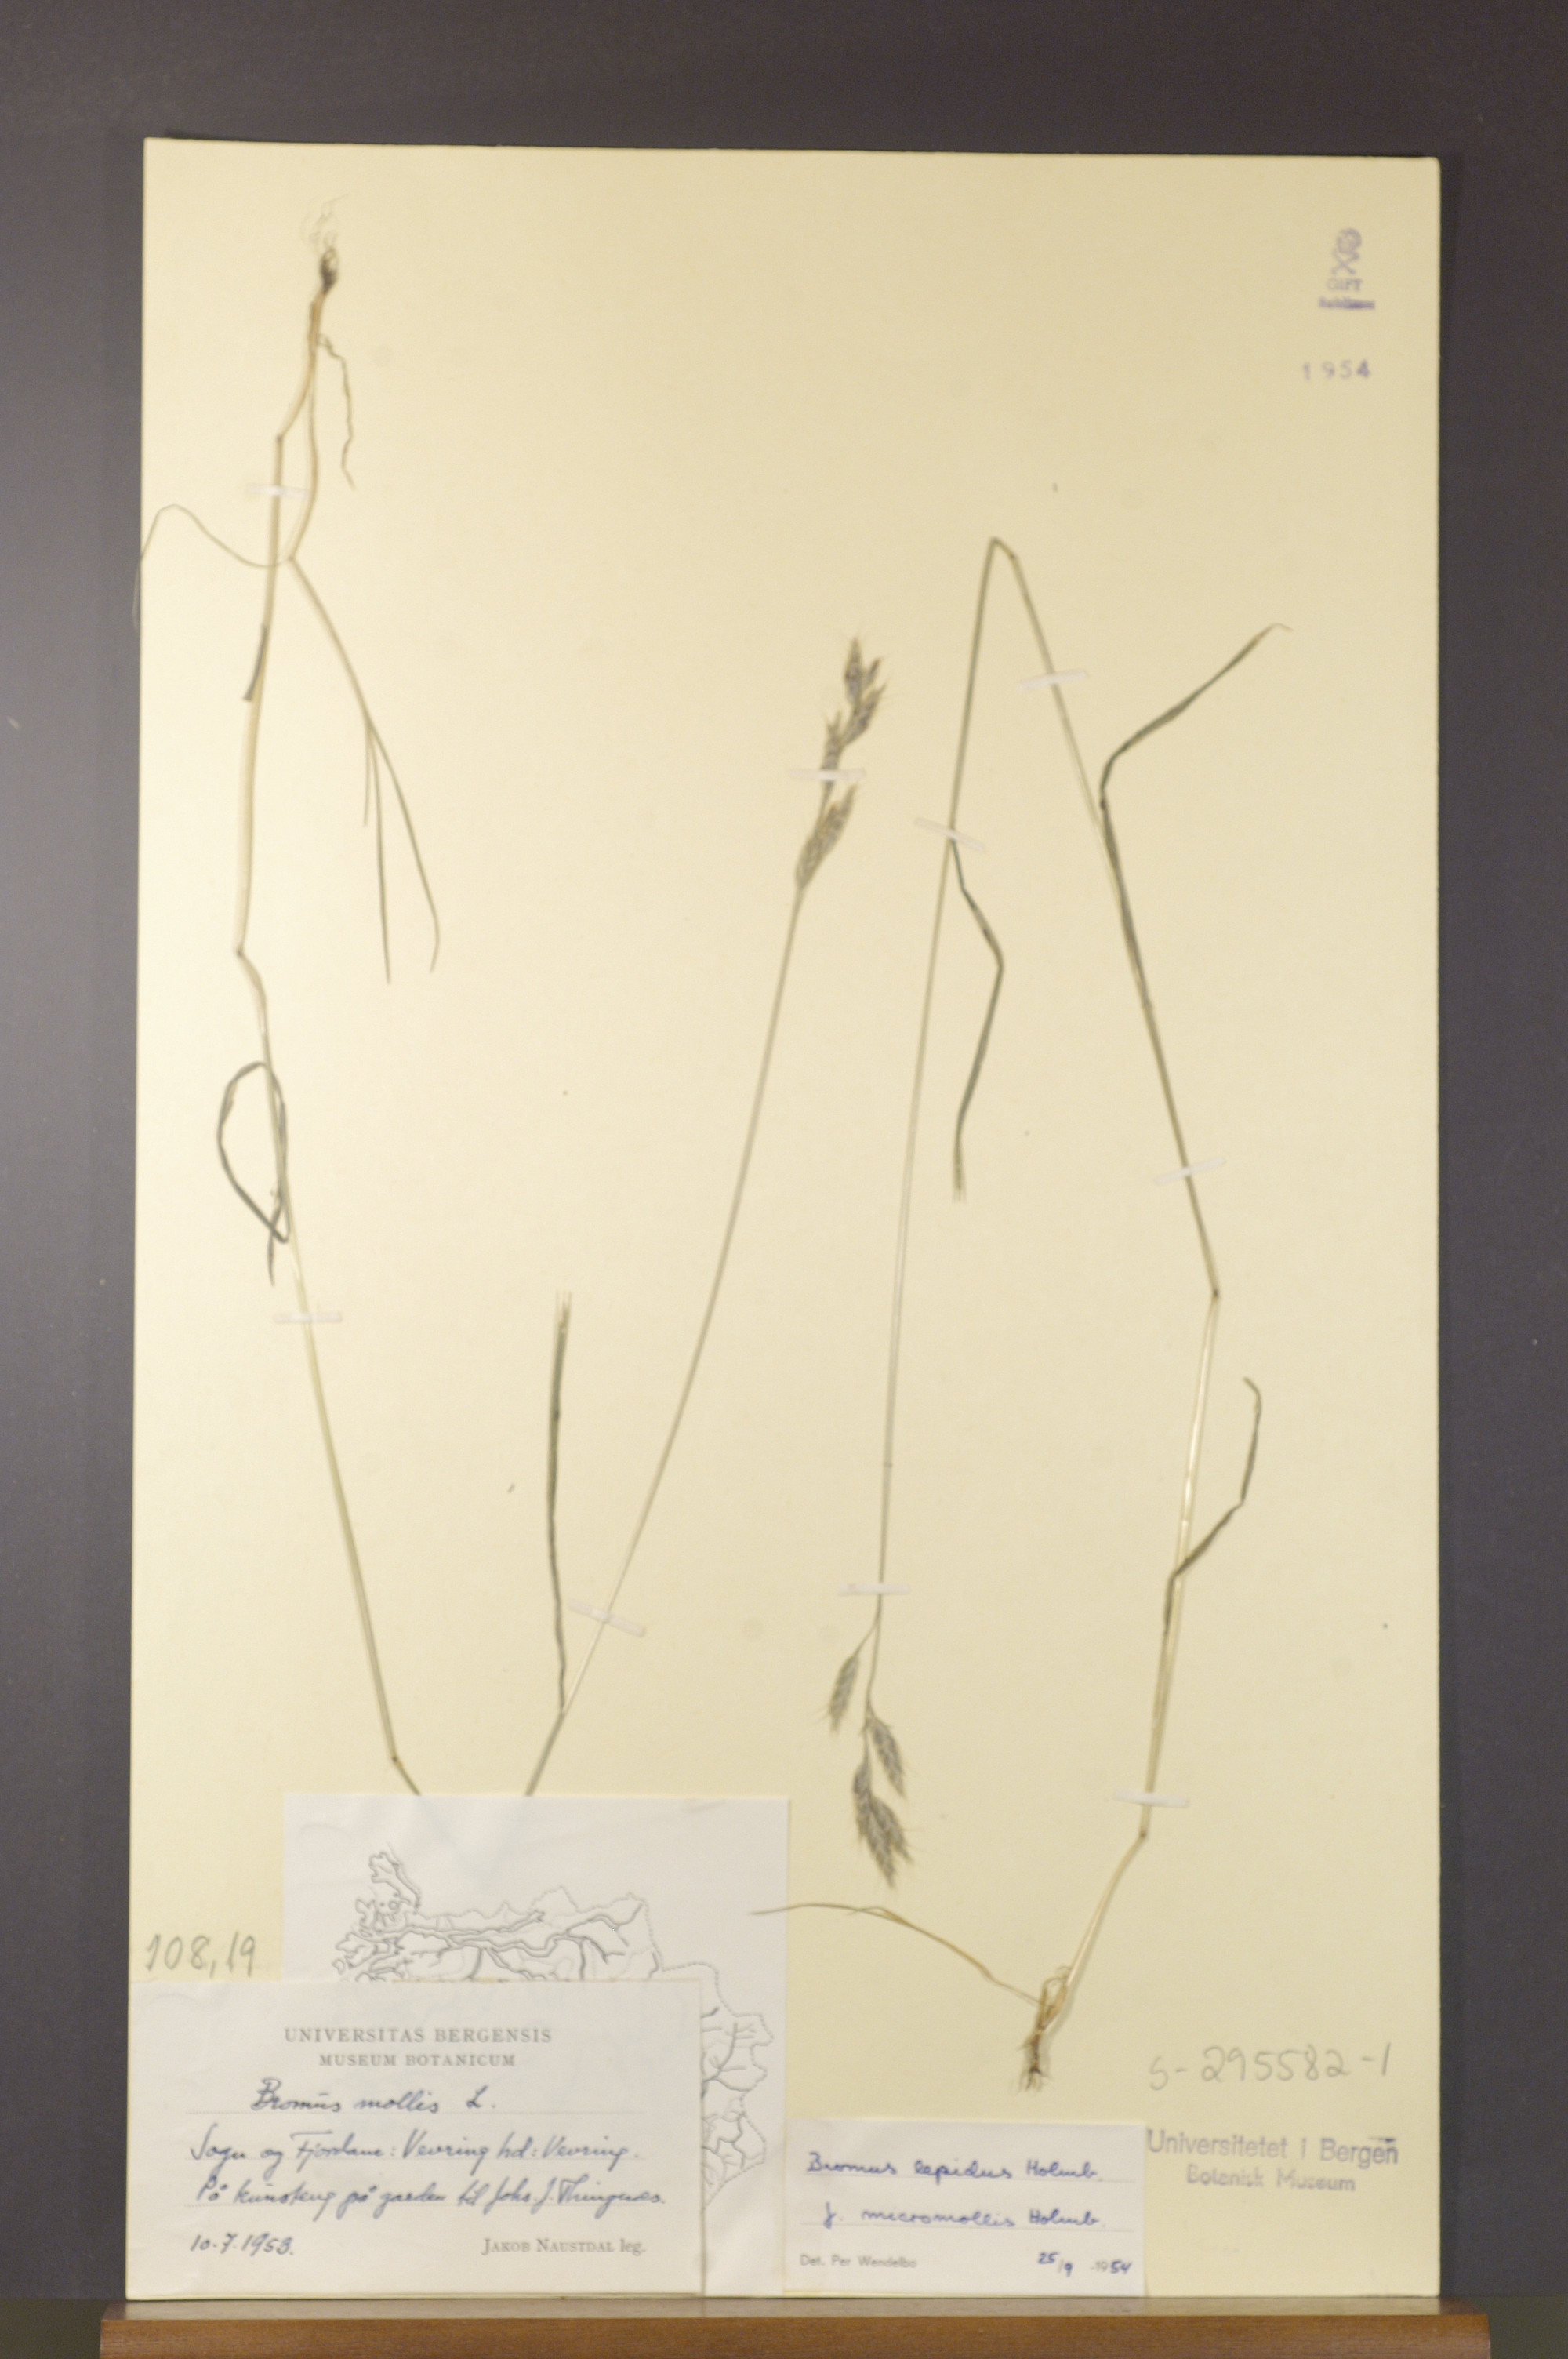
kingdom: Plantae
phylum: Tracheophyta
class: Liliopsida
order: Poales
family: Poaceae
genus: Bromus
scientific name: Bromus lepidus
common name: Slender soft-brome
